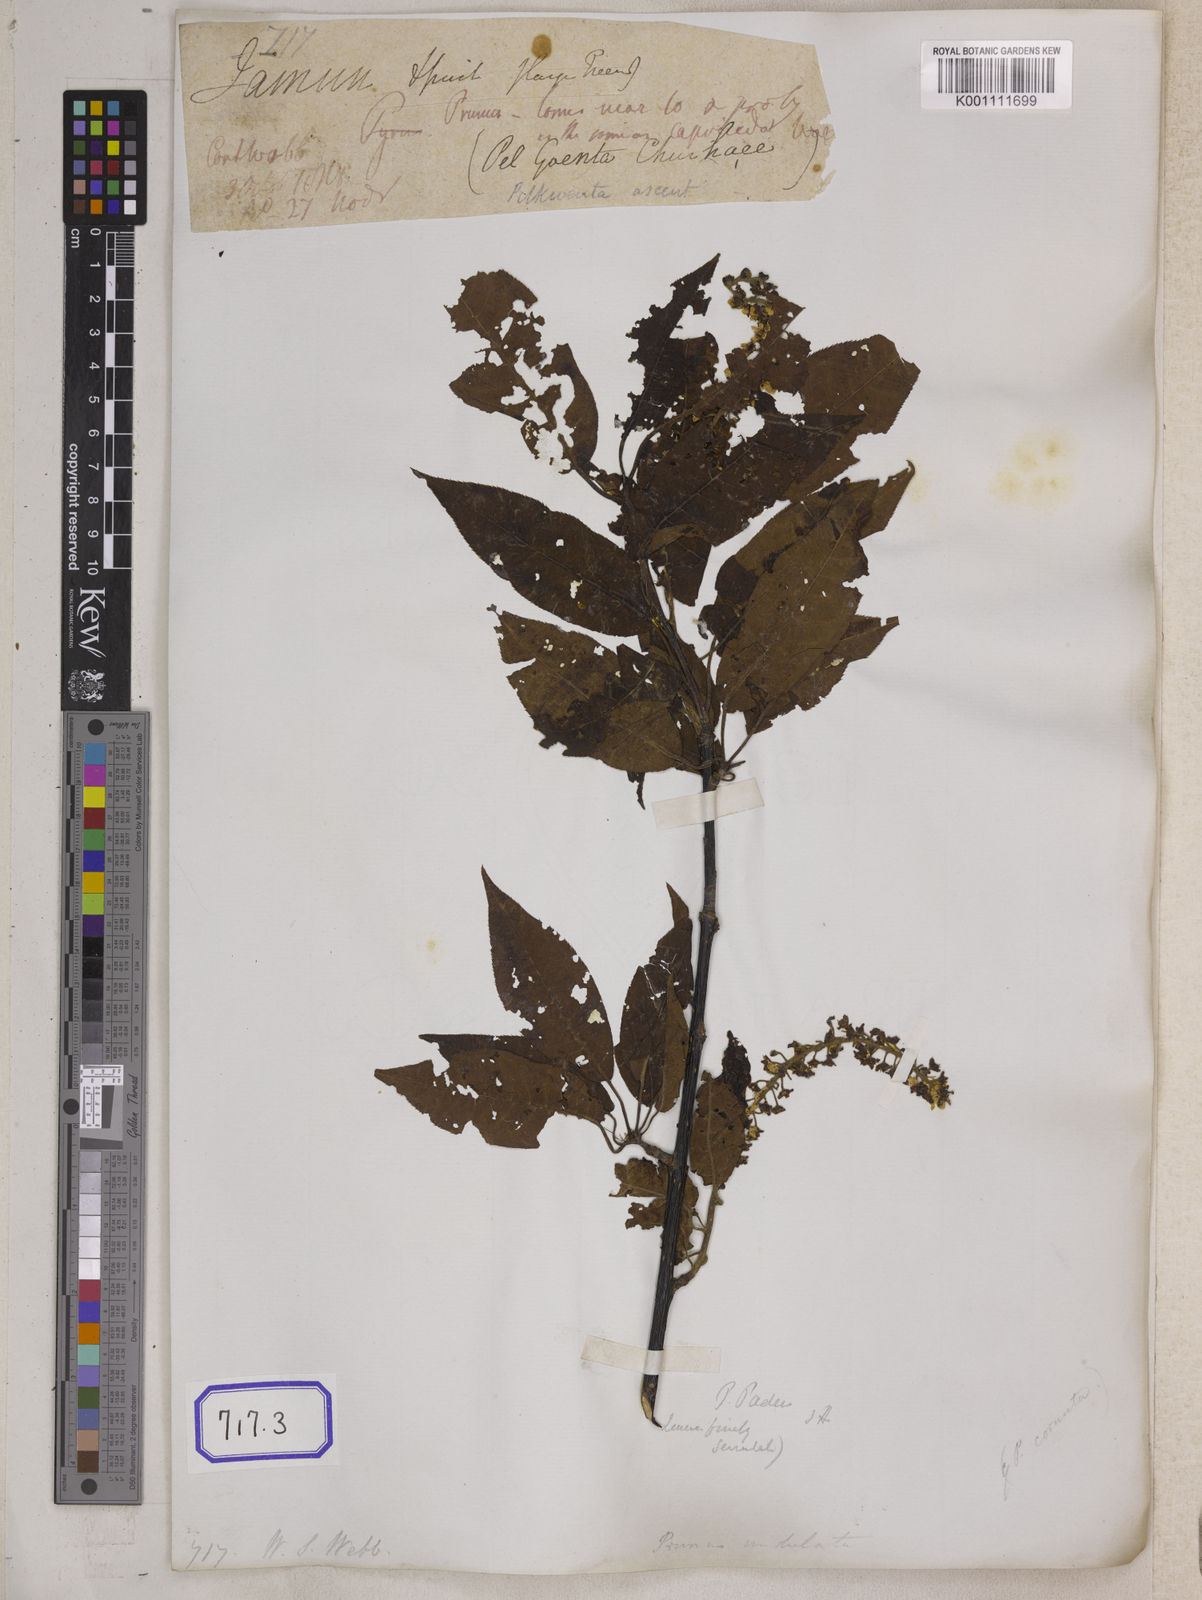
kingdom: Plantae
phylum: Tracheophyta
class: Magnoliopsida
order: Rosales
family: Rosaceae
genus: Prunus
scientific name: Prunus napaulensis
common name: Khasia cherry
